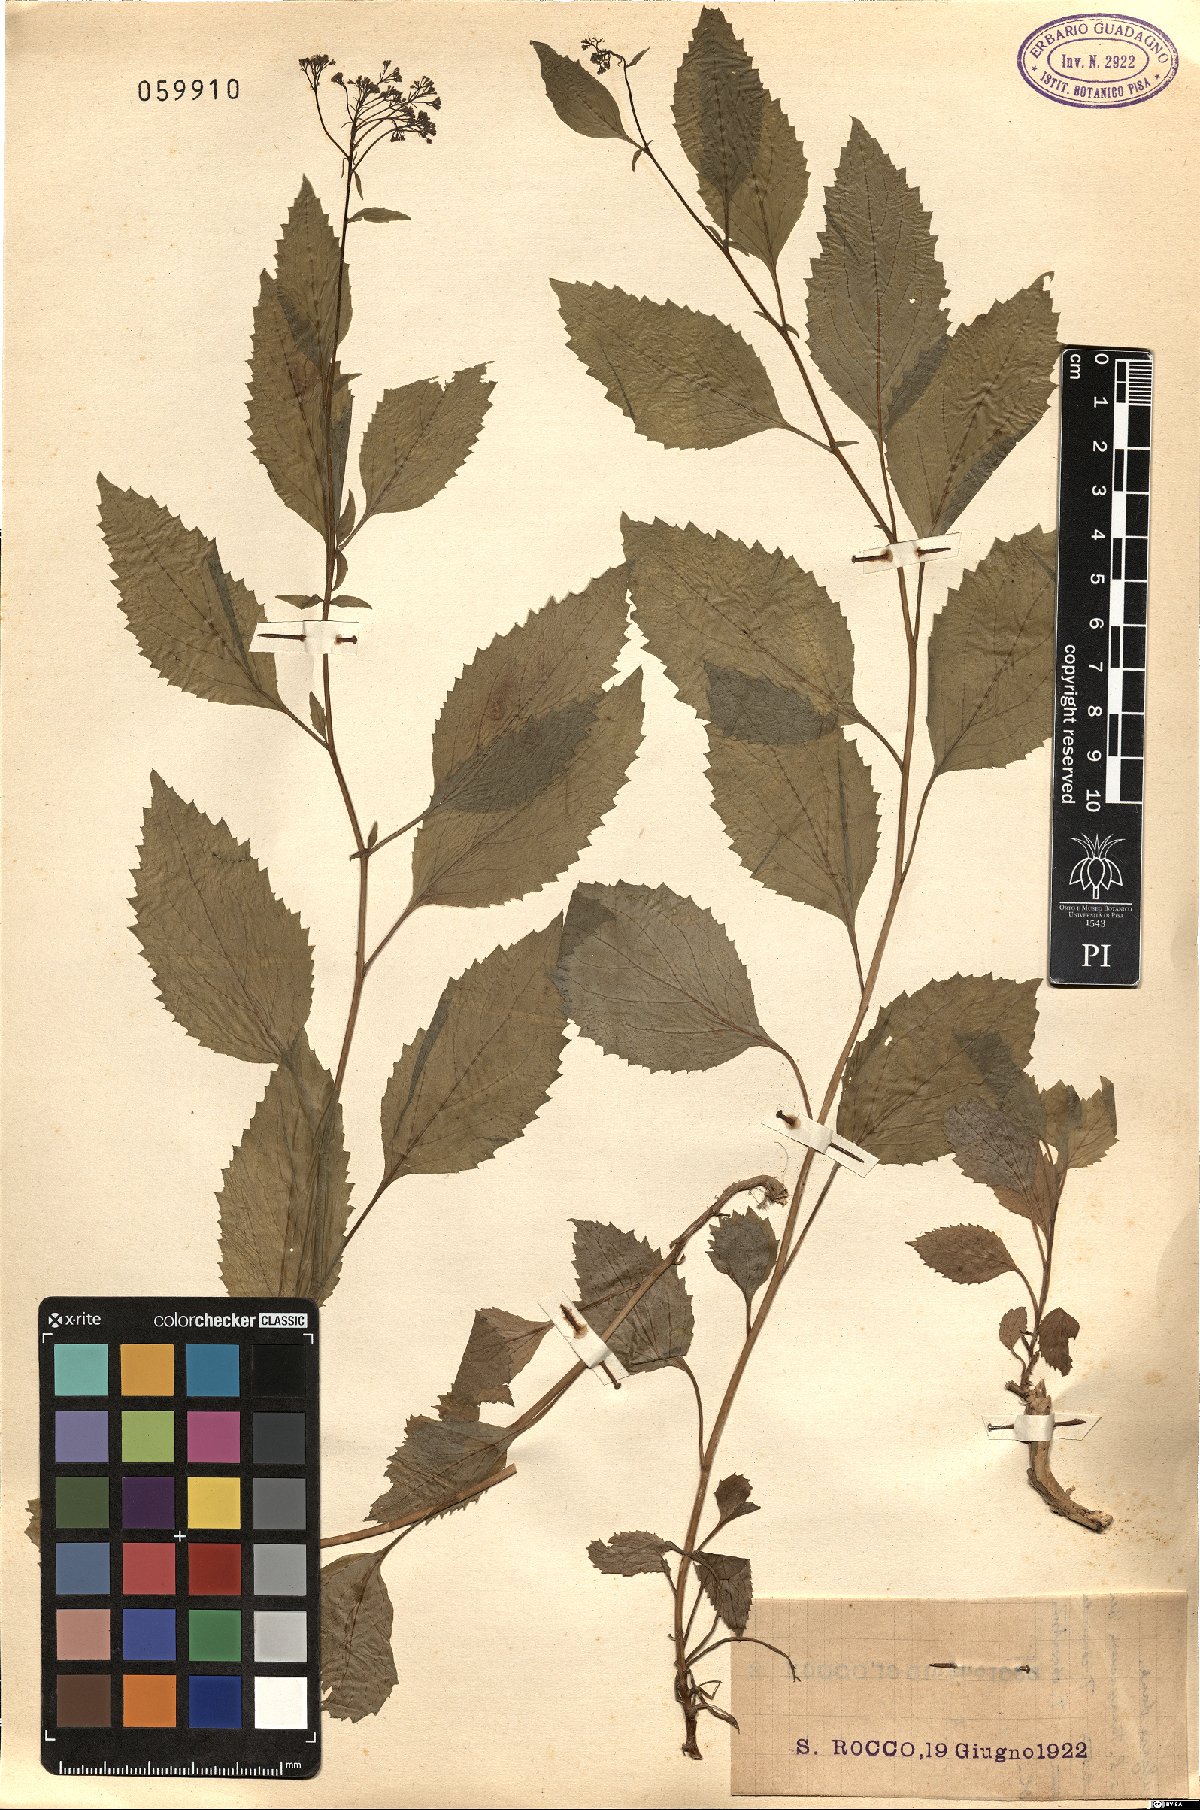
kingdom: Plantae
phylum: Tracheophyta
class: Magnoliopsida
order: Myrtales
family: Onagraceae
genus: Circaea
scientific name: Circaea lutetiana
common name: Enchanter's-nightshade
